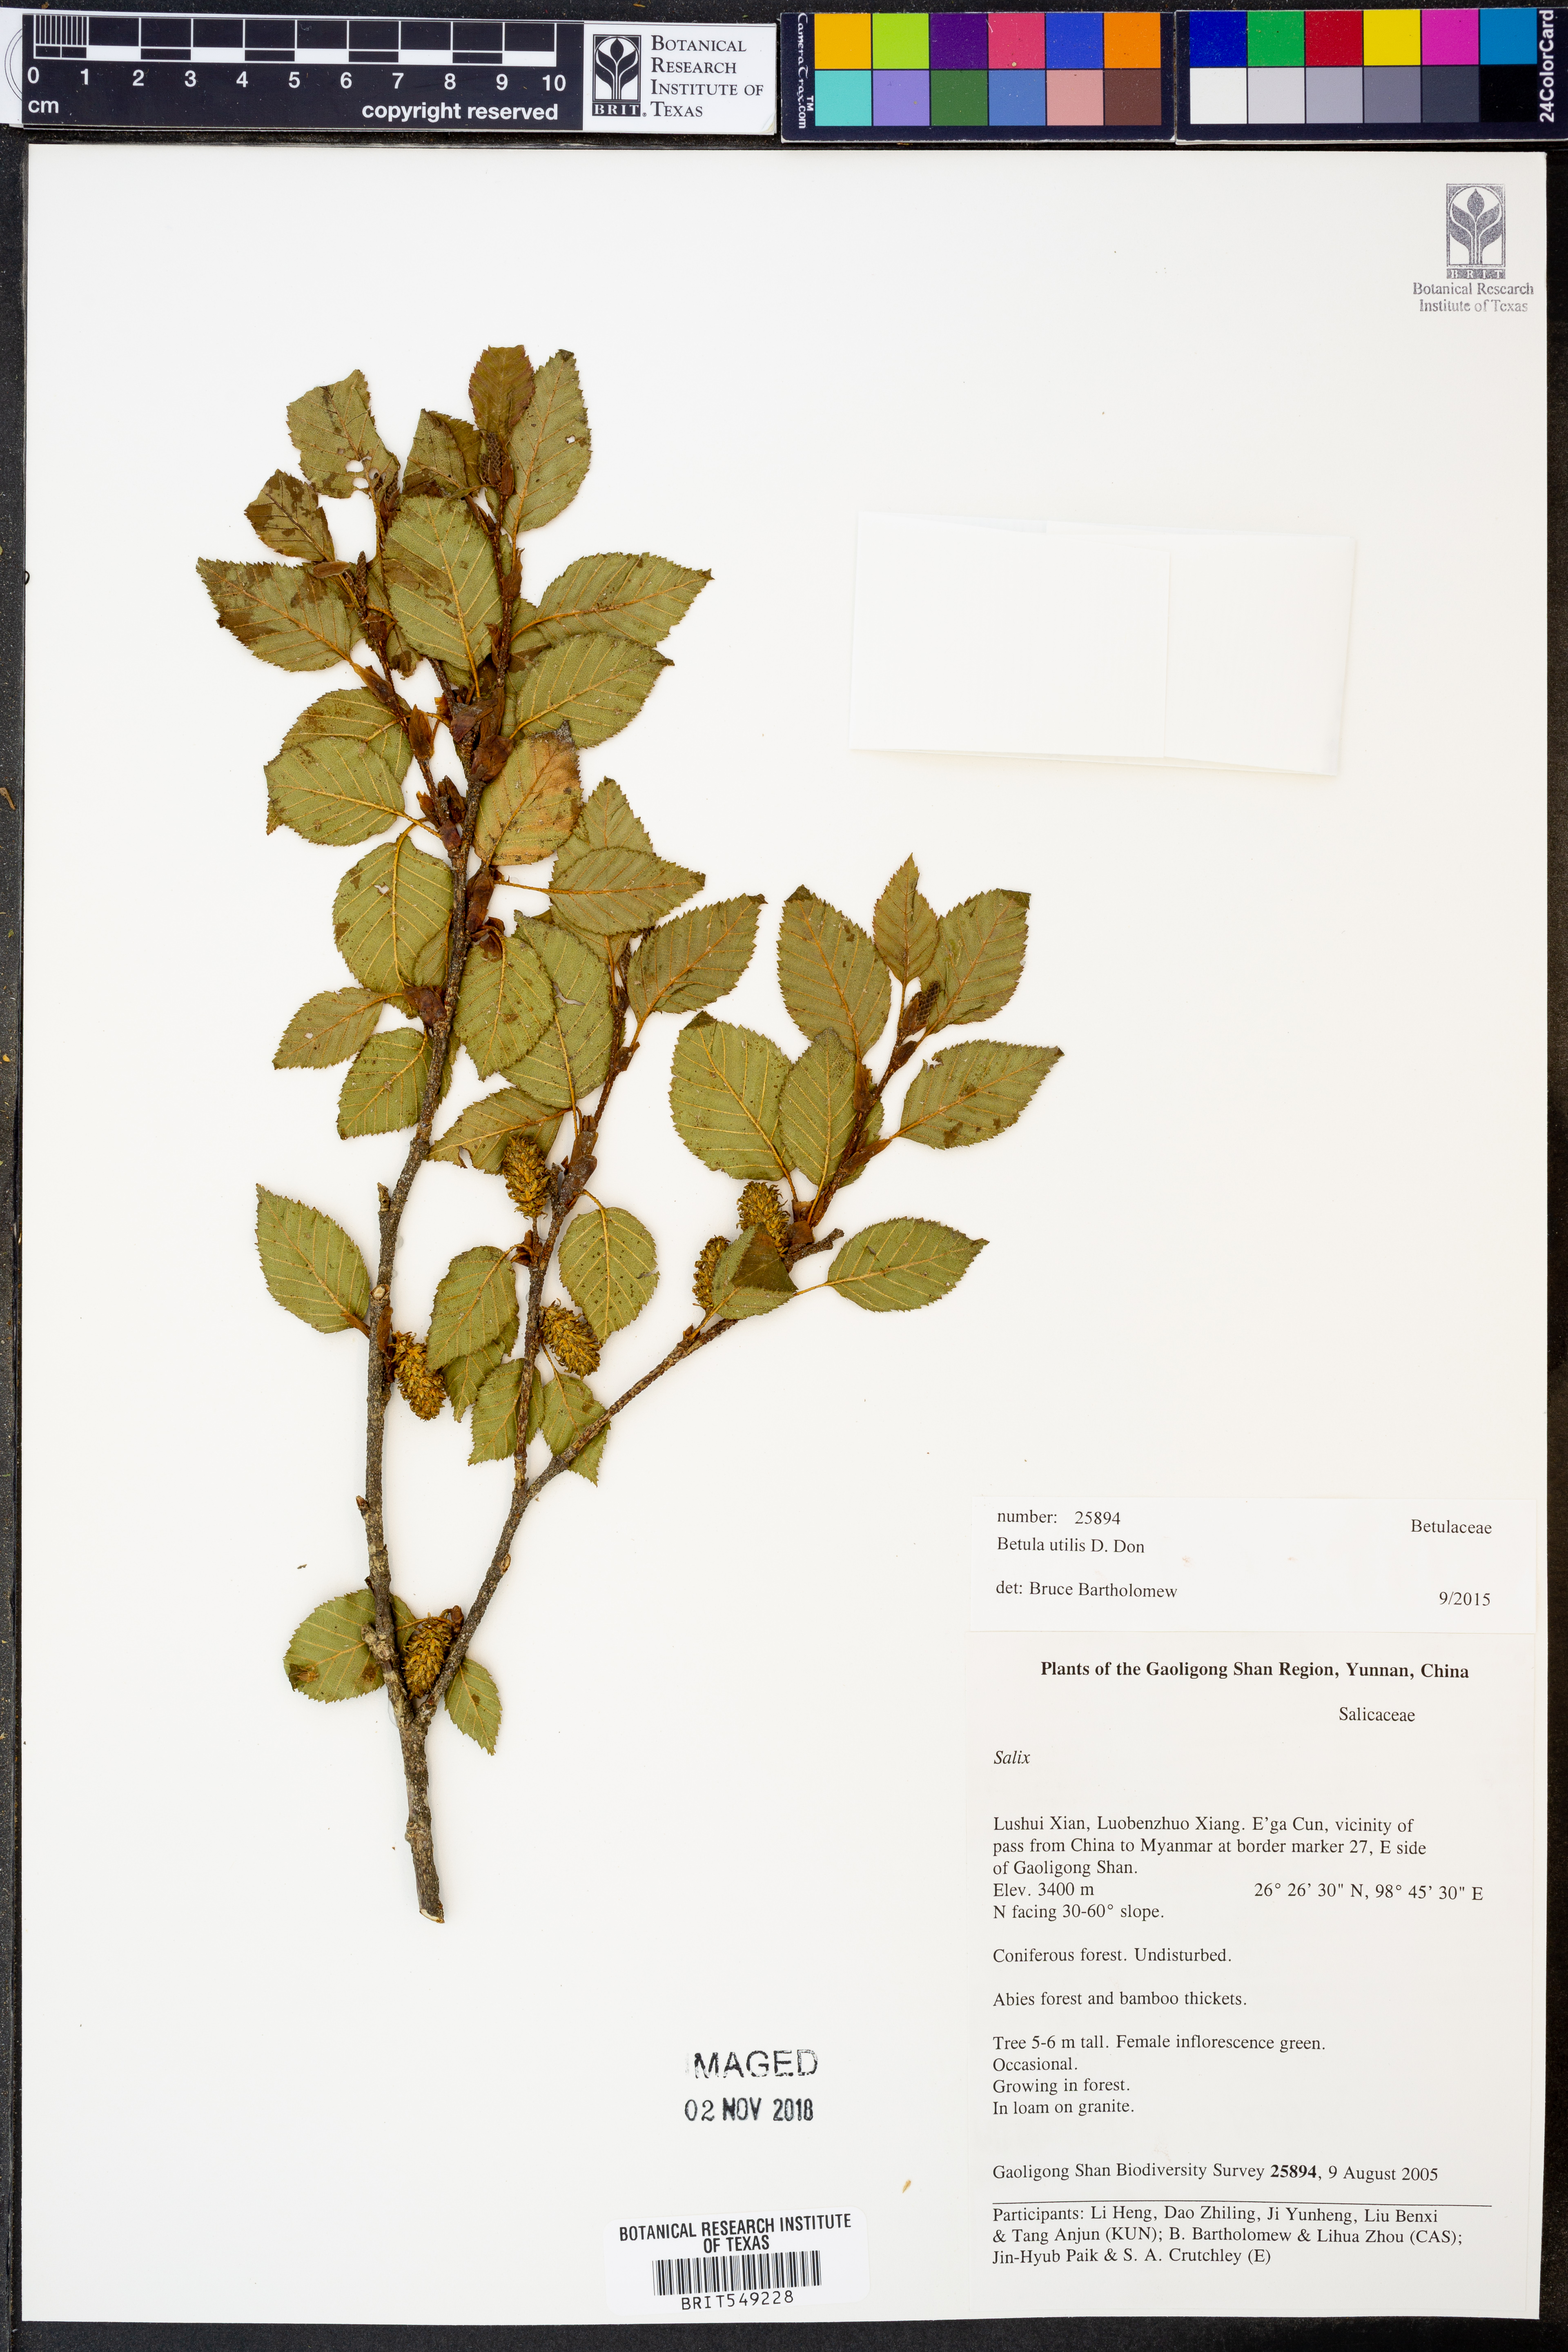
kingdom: Plantae
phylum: Tracheophyta
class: Magnoliopsida
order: Fagales
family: Betulaceae
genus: Betula
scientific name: Betula utilis
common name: Himalayan birch
